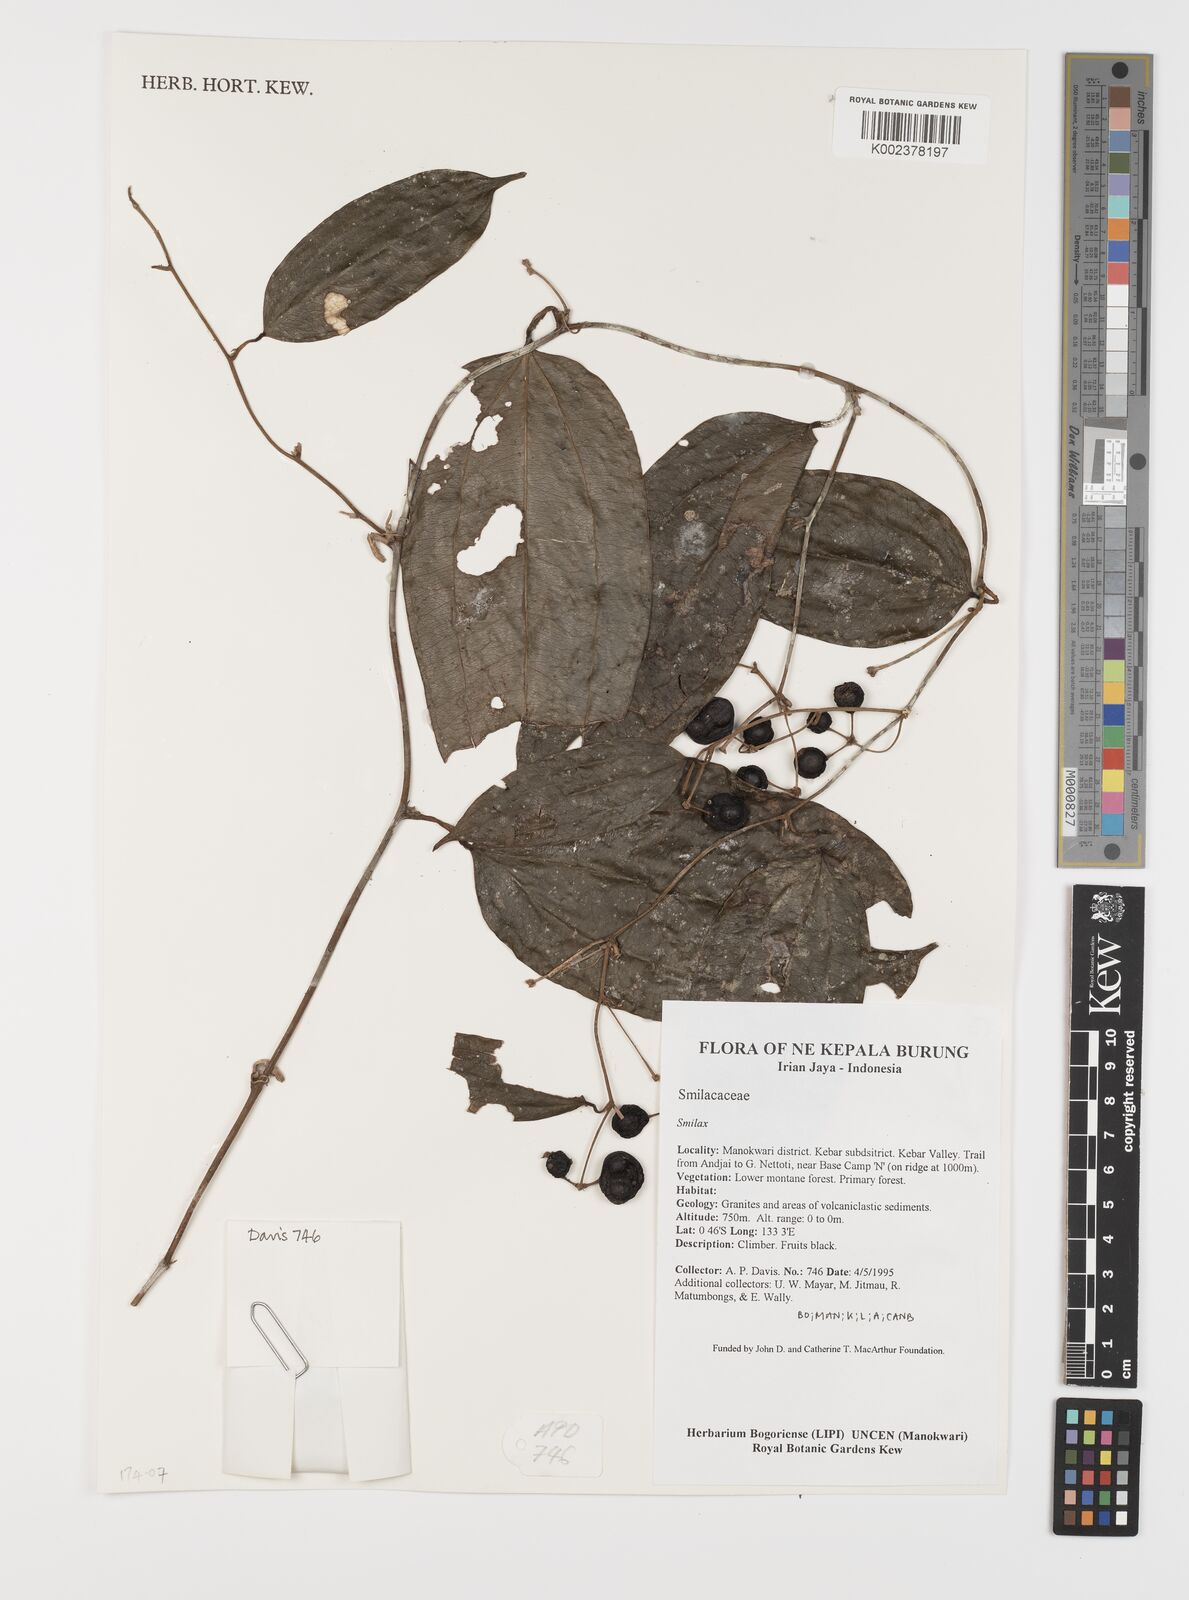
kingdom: Plantae
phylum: Tracheophyta
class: Liliopsida
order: Liliales
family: Smilacaceae
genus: Smilax
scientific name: Smilax
